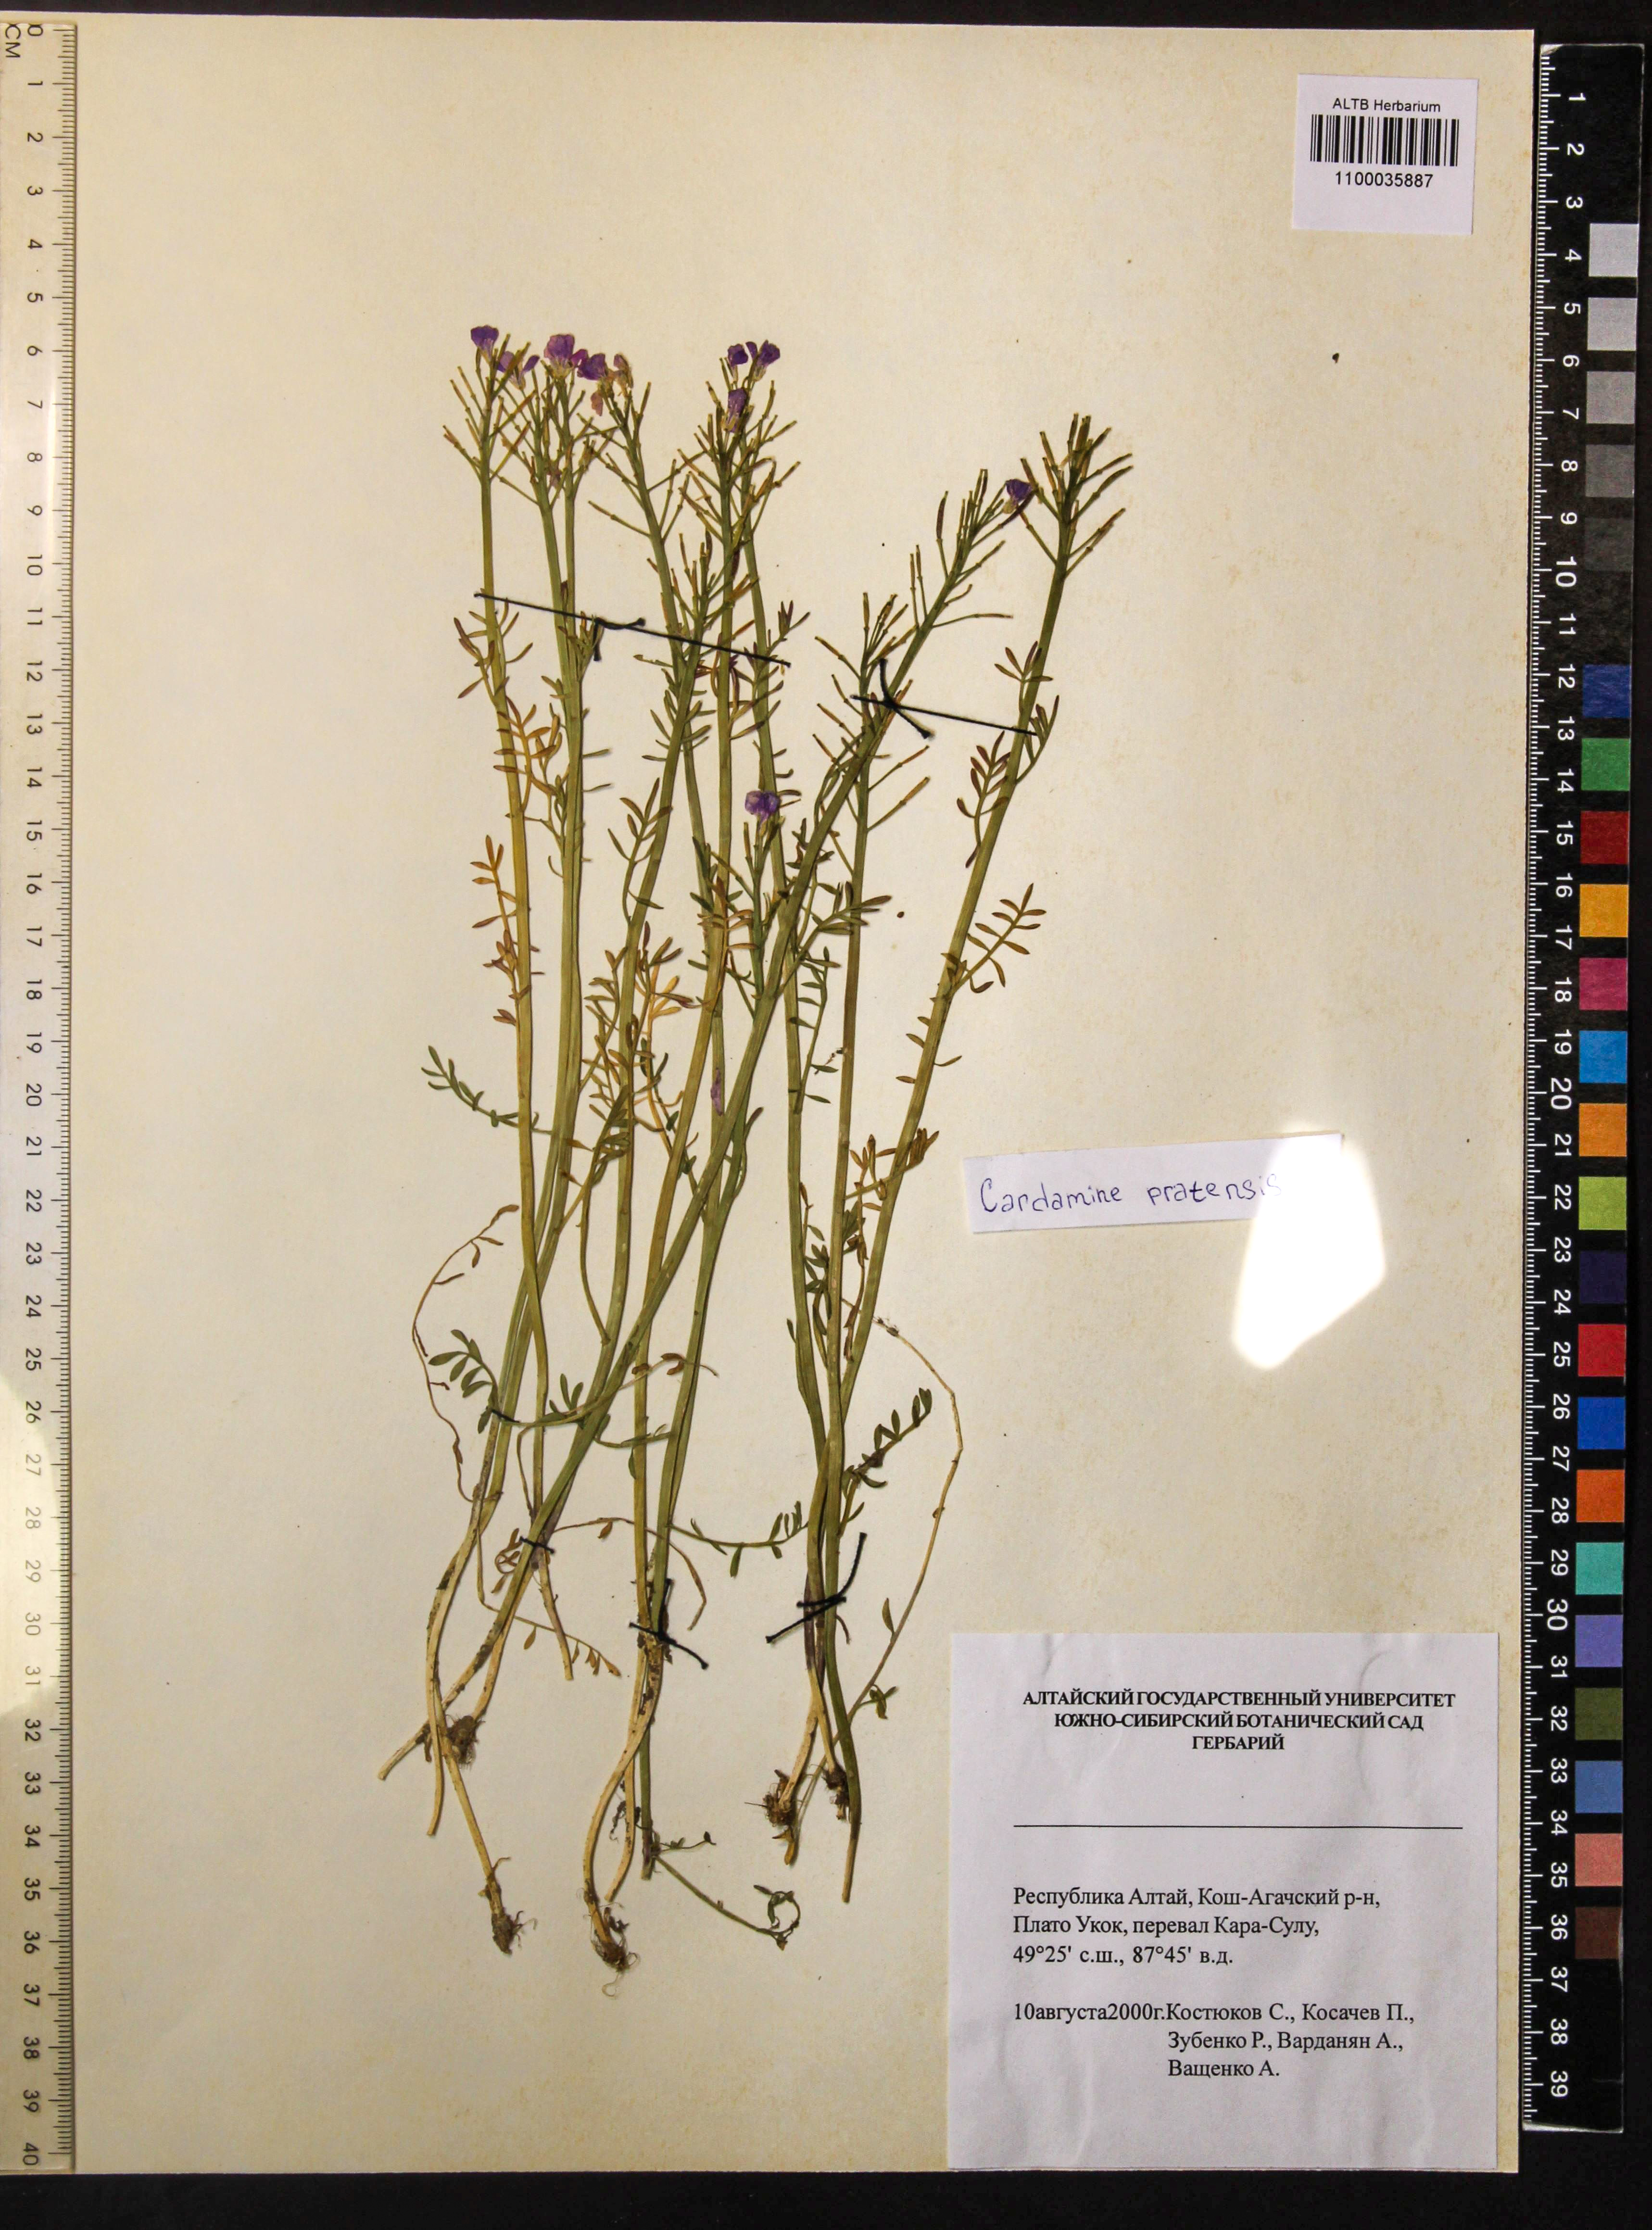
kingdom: Plantae
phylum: Tracheophyta
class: Magnoliopsida
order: Brassicales
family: Brassicaceae
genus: Cardamine
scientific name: Cardamine pratensis
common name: Cuckoo flower
